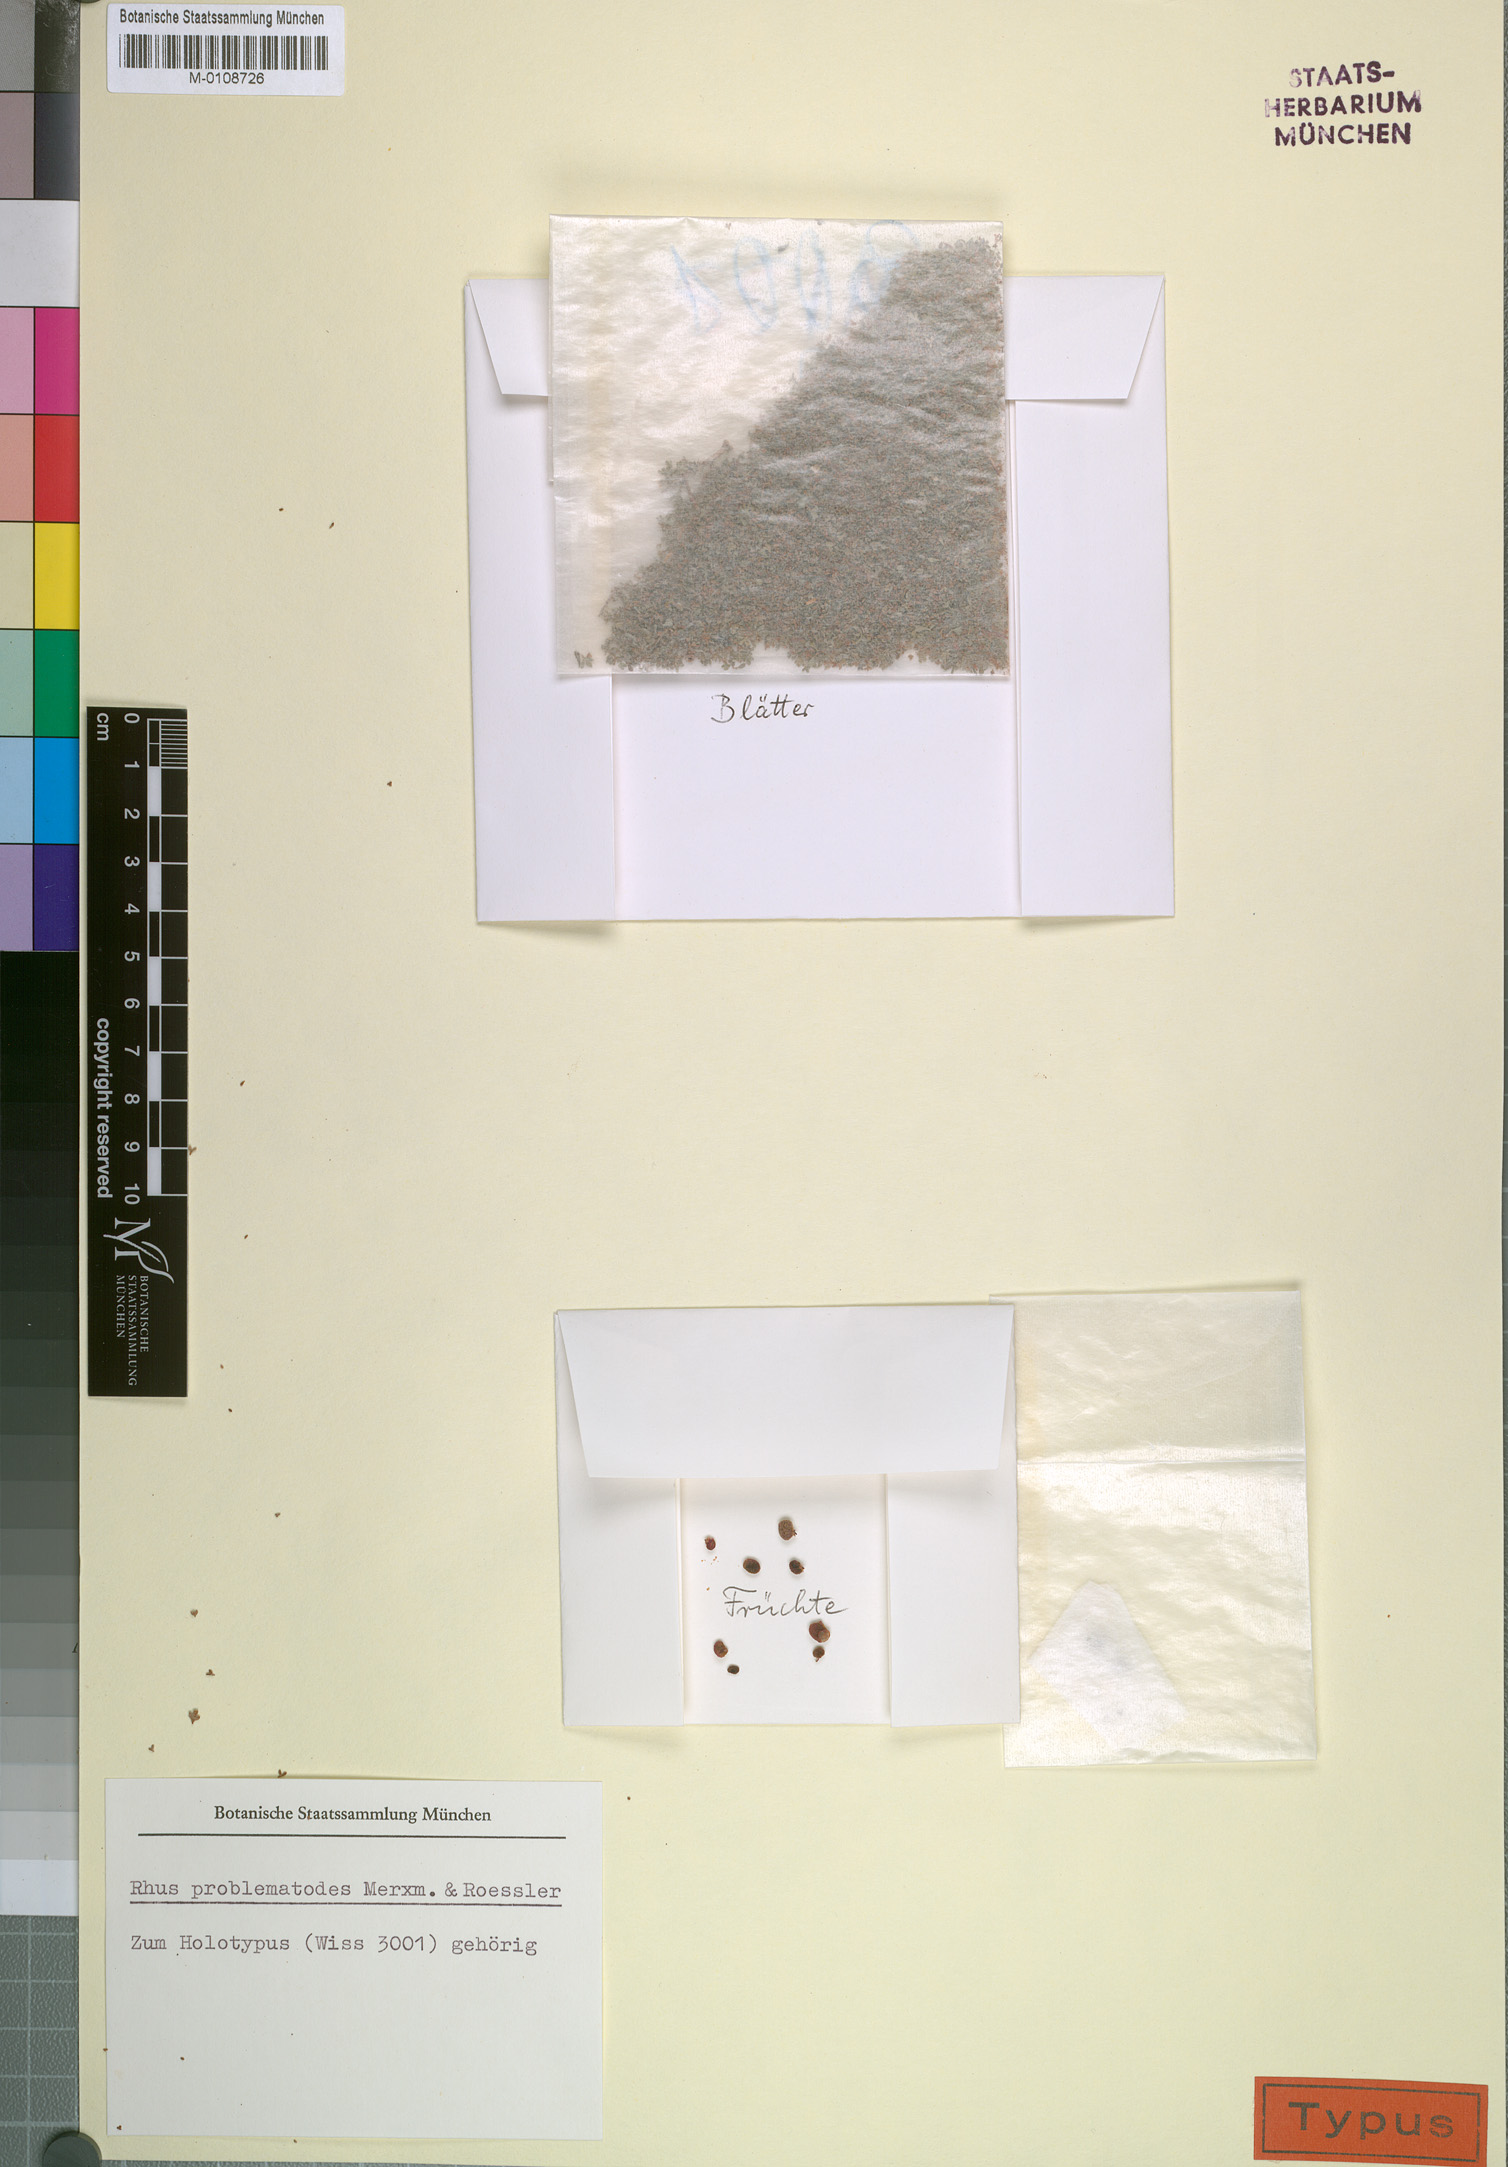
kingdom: Plantae
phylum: Tracheophyta
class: Magnoliopsida
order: Sapindales
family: Anacardiaceae
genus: Searsia
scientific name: Searsia problematodes
